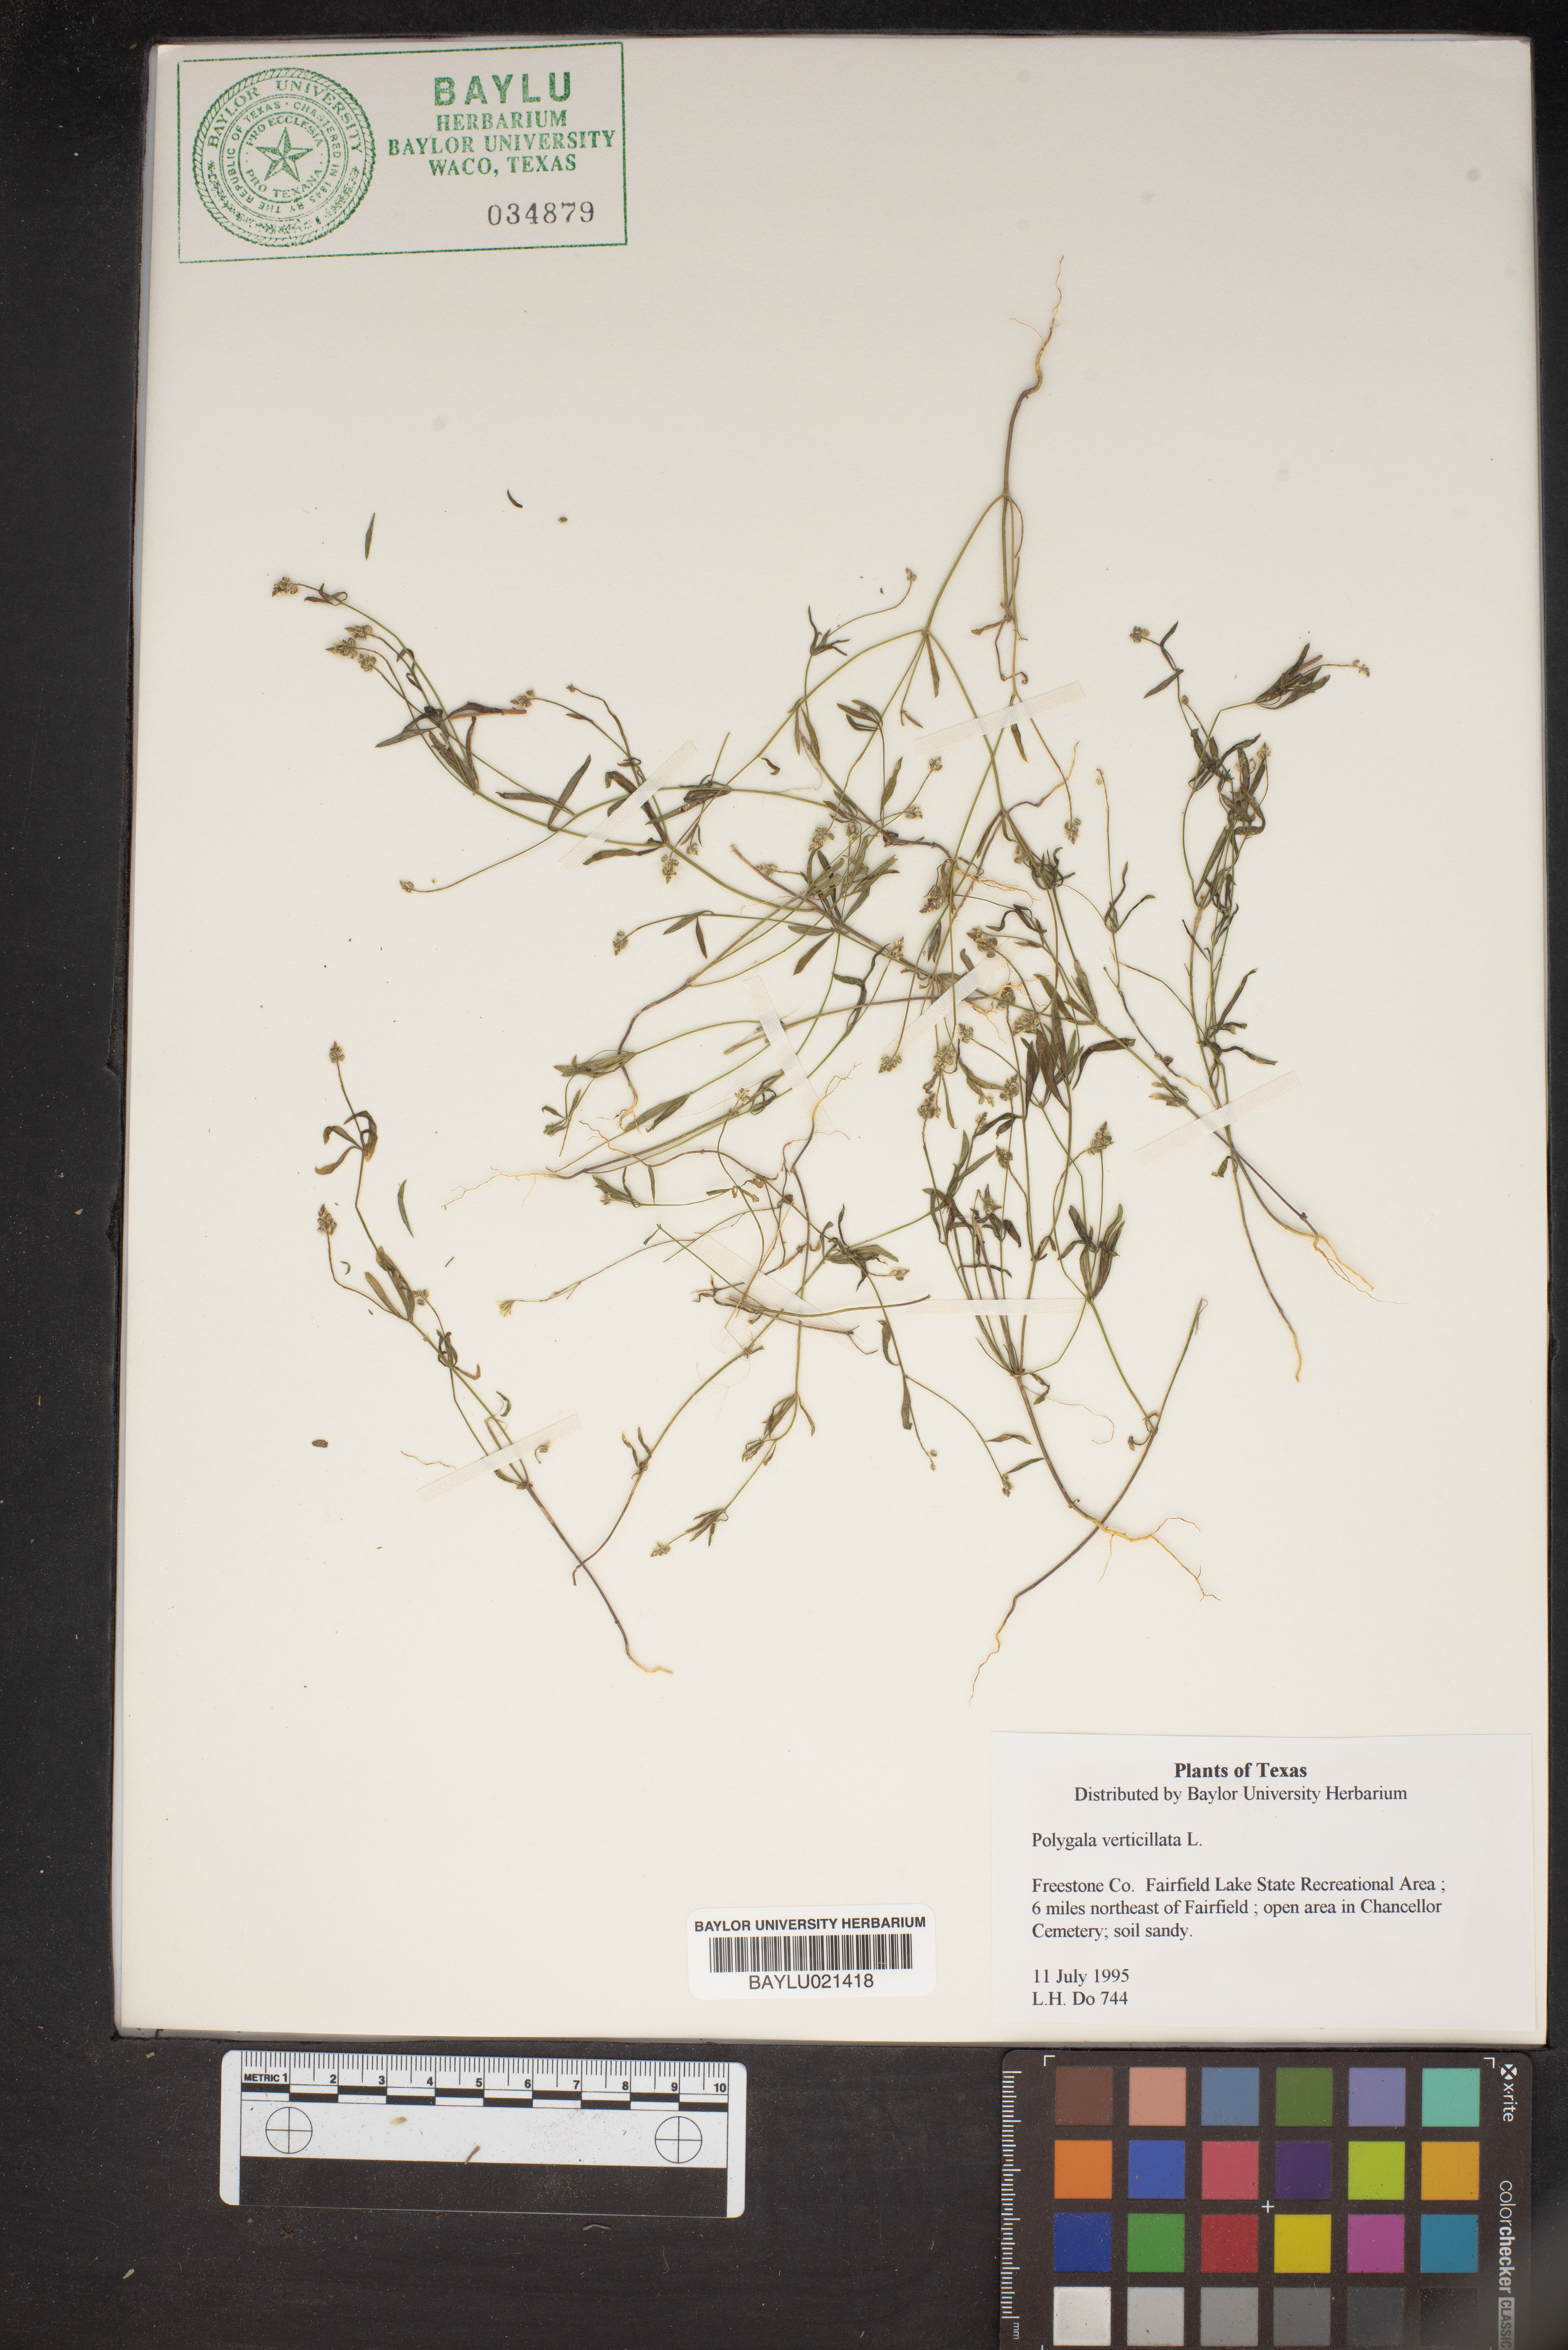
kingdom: Plantae
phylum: Tracheophyta
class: Magnoliopsida
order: Fabales
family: Polygalaceae
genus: Polygala
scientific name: Polygala verticillata
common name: Whorl milkwort
